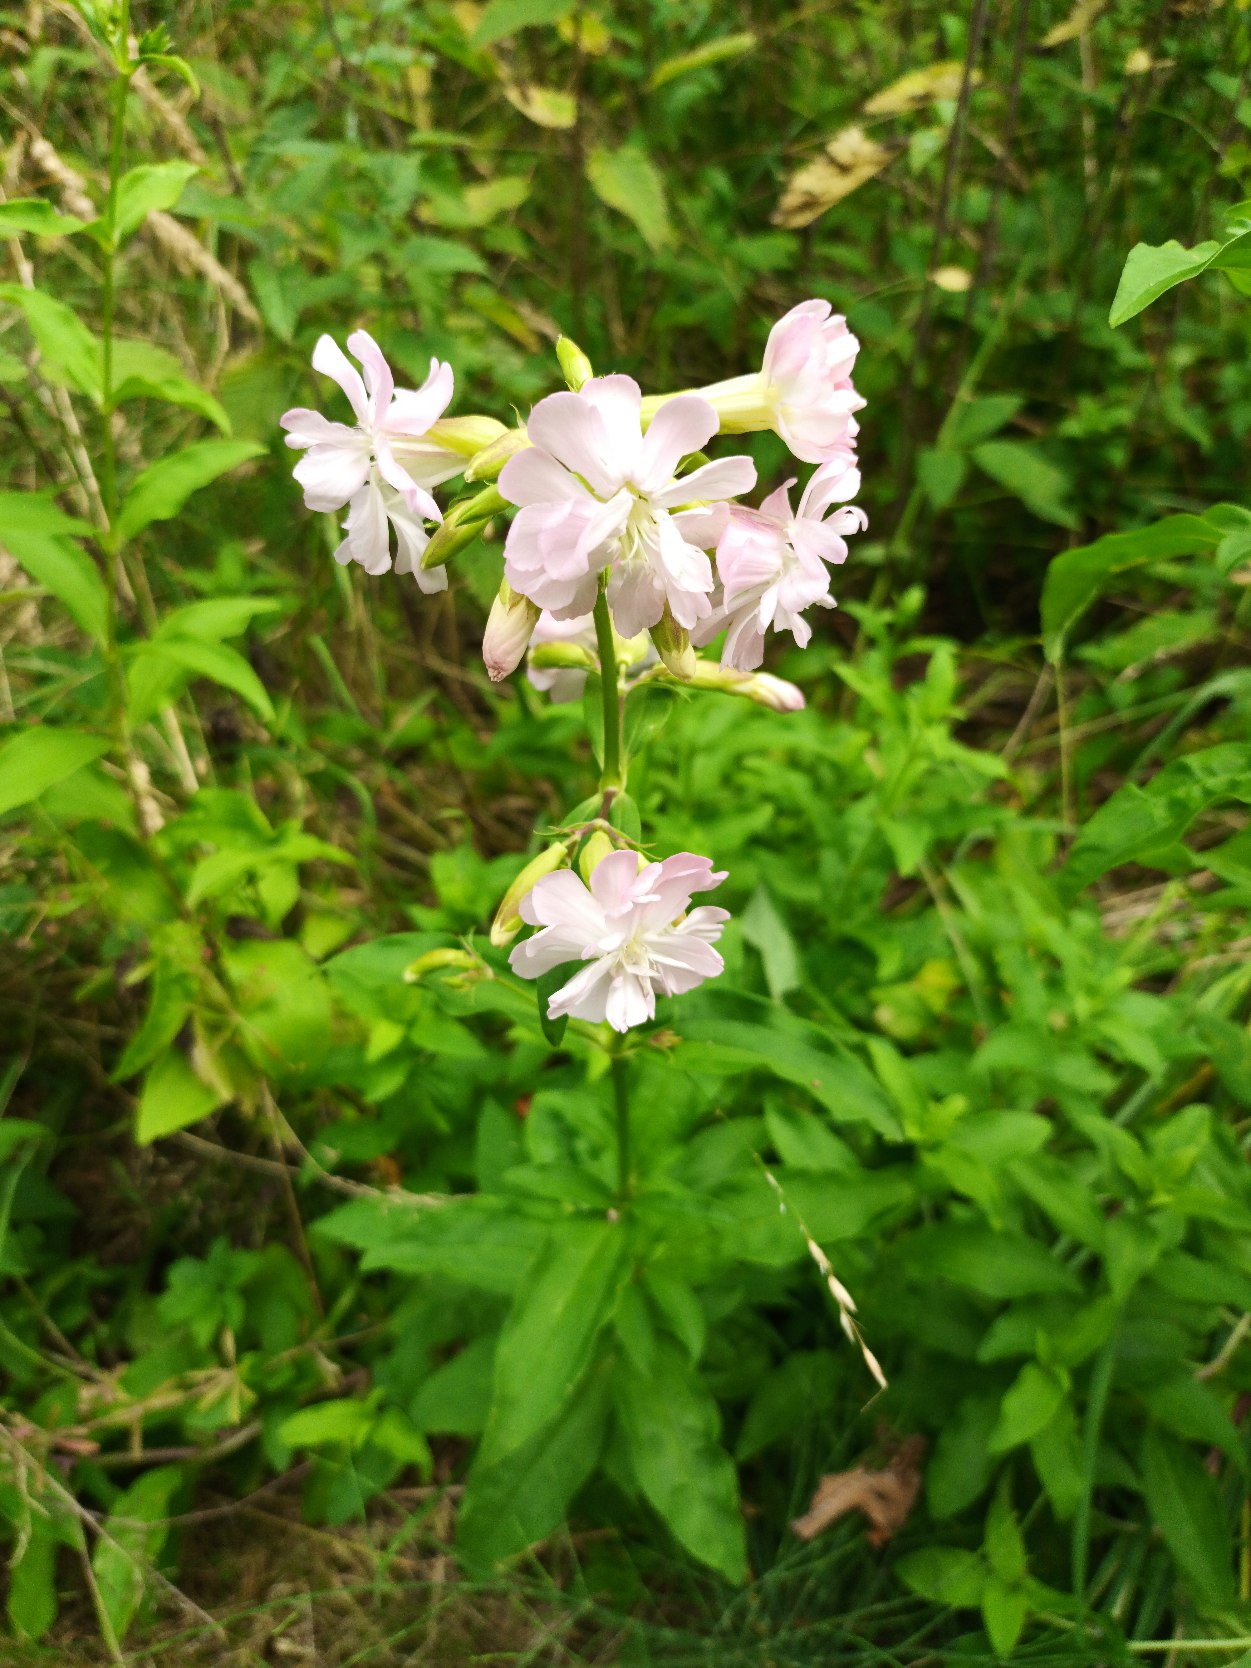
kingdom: Plantae
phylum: Tracheophyta
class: Magnoliopsida
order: Caryophyllales
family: Caryophyllaceae
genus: Saponaria
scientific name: Saponaria officinalis
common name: Sæbeurt
